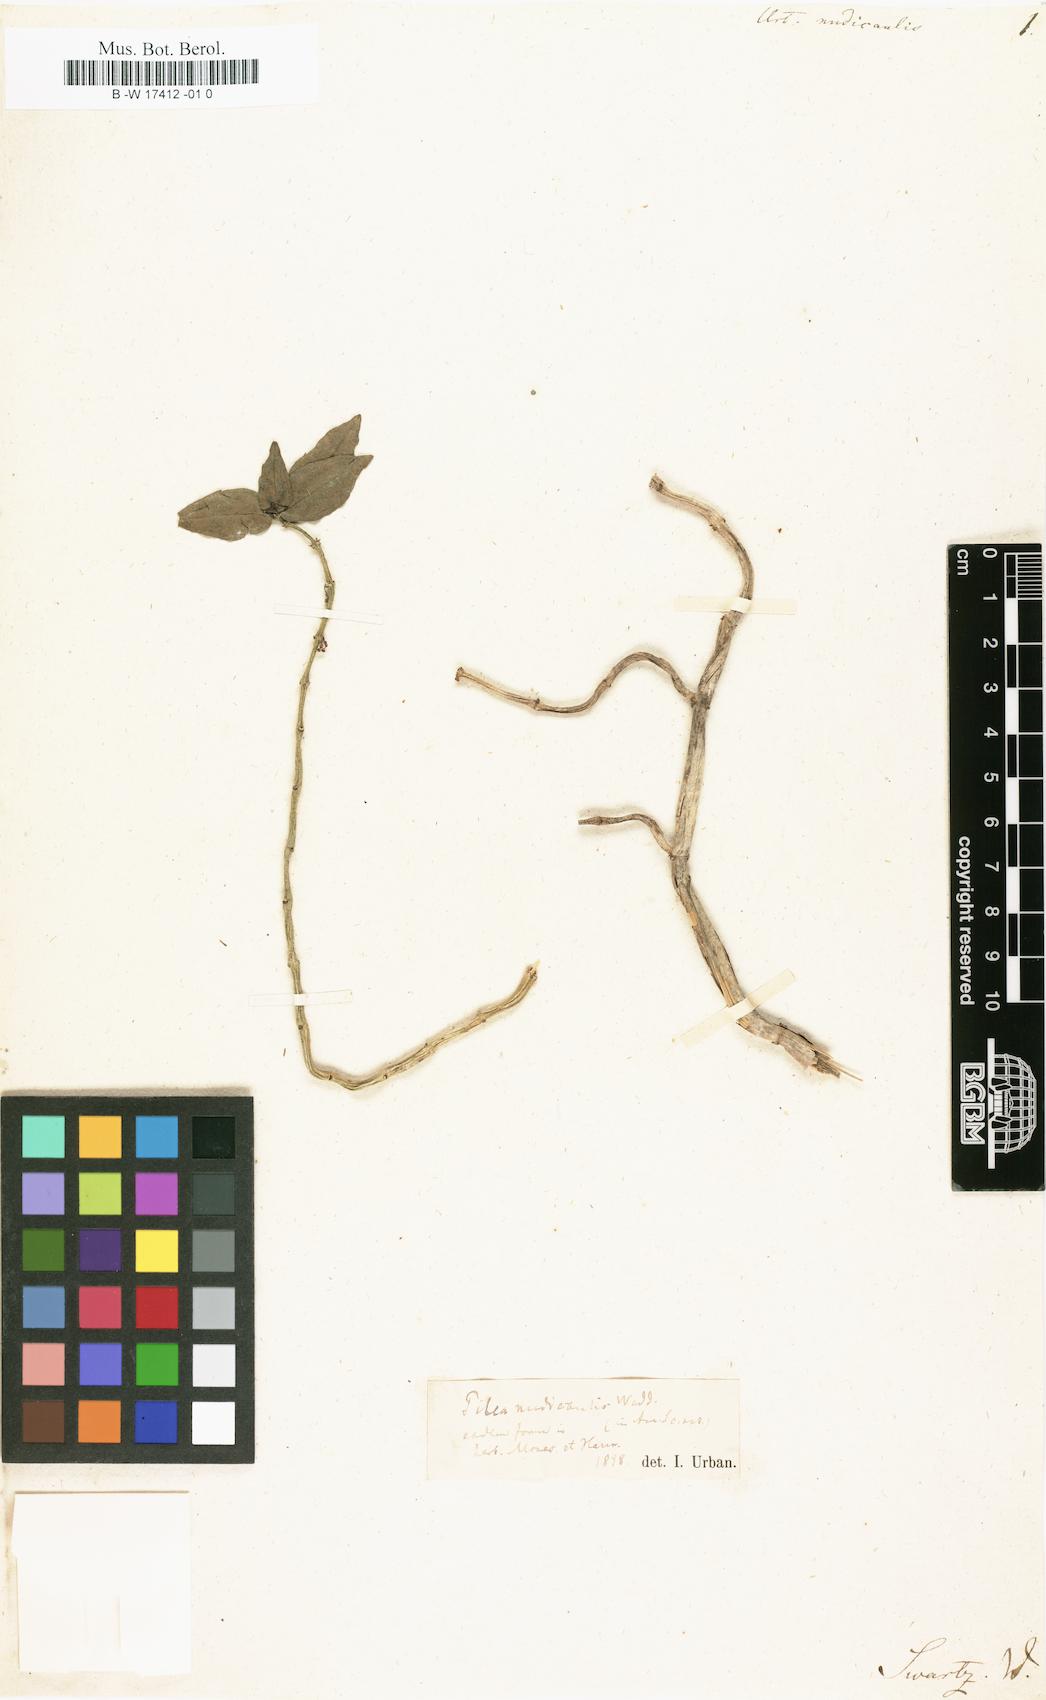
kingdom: Plantae
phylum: Tracheophyta
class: Magnoliopsida
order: Rosales
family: Urticaceae
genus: Pilea
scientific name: Pilea nudicaulis
